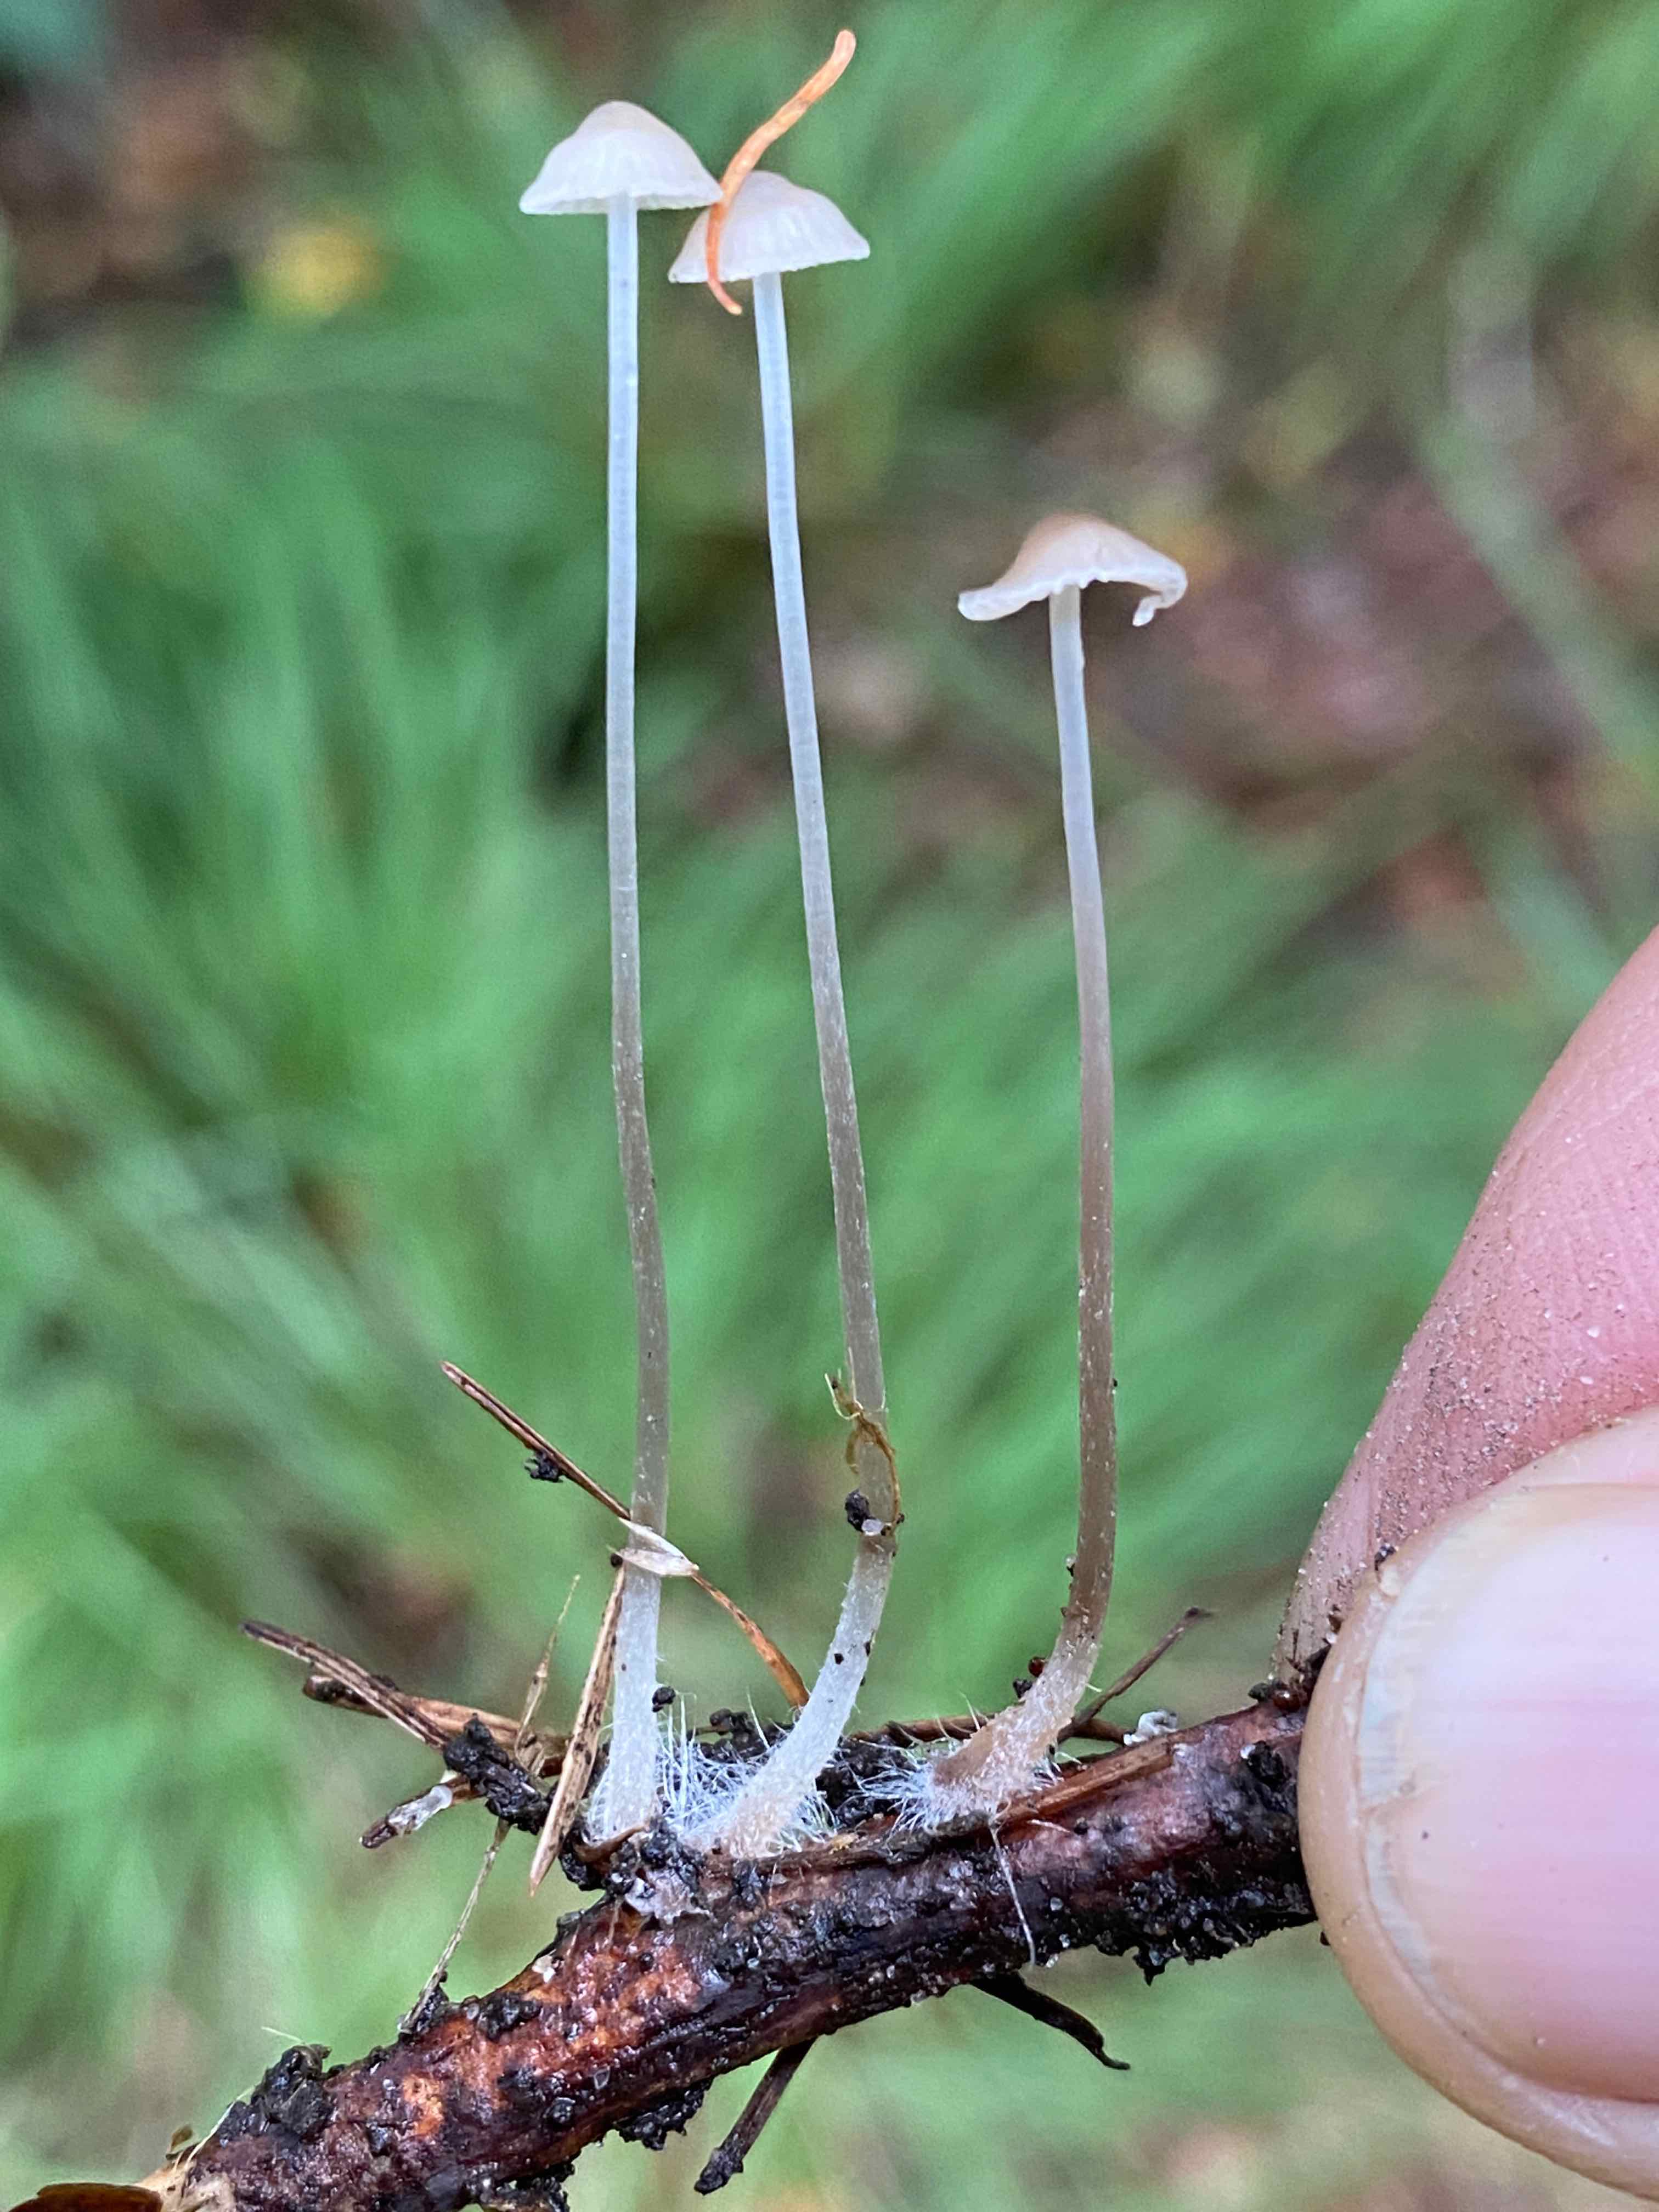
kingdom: Fungi
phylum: Basidiomycota
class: Agaricomycetes
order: Agaricales
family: Mycenaceae
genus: Mycena
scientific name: Mycena vitilis
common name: blankstokket huesvamp
